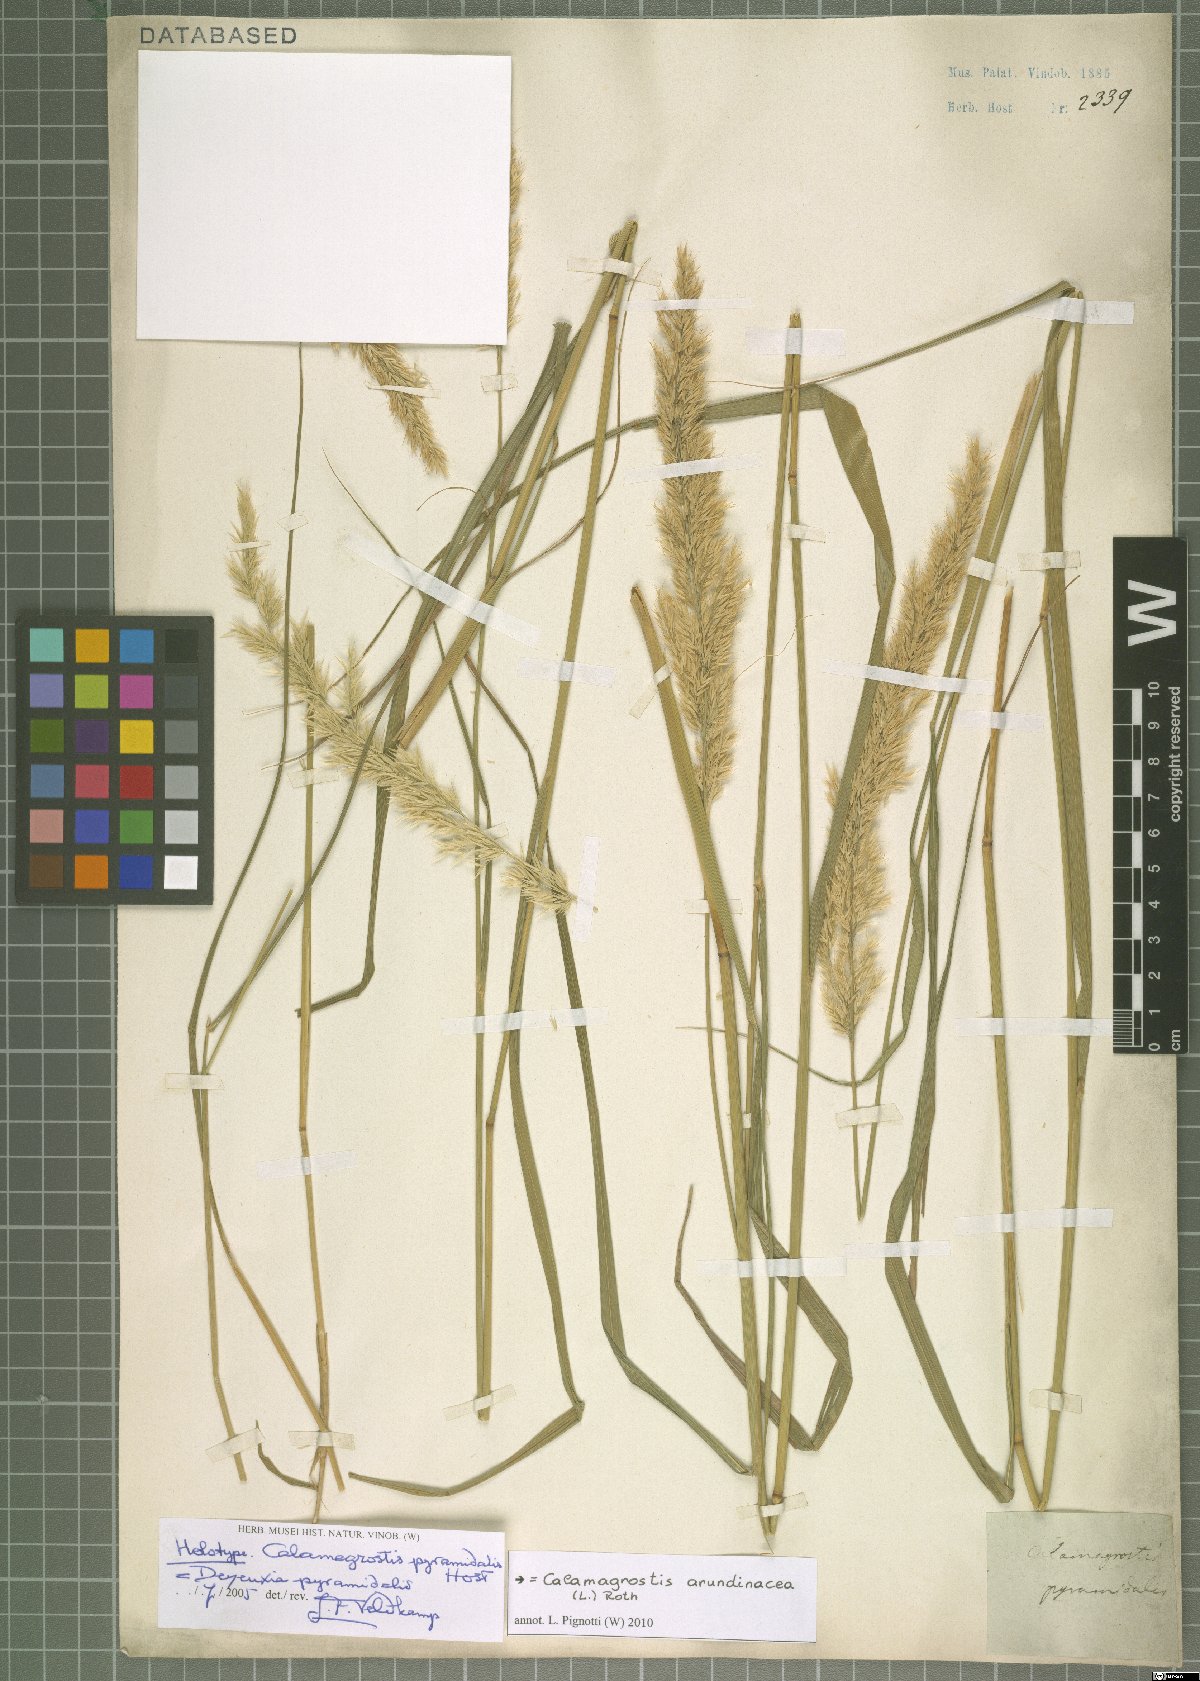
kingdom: Plantae
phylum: Tracheophyta
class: Liliopsida
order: Poales
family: Poaceae
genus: Calamagrostis
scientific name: Calamagrostis arundinacea
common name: Metskastik
